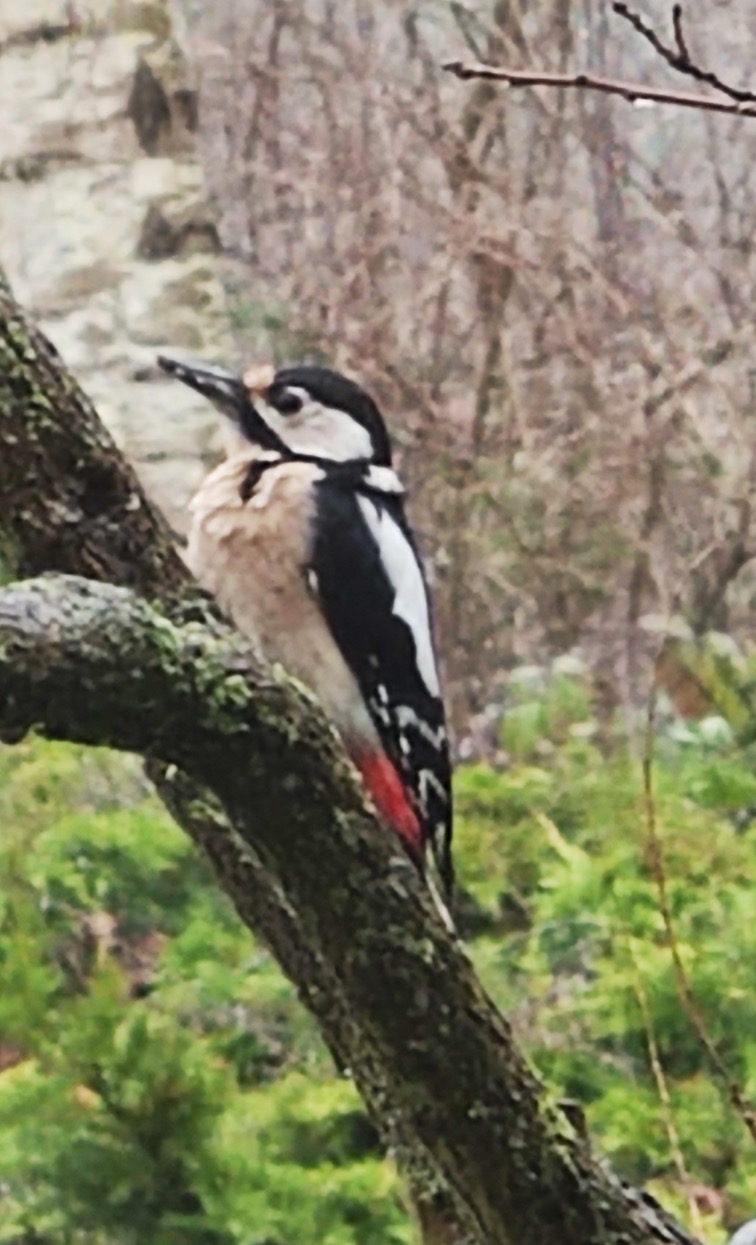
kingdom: Animalia
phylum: Chordata
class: Aves
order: Piciformes
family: Picidae
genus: Dendrocopos
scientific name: Dendrocopos major
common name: Stor flagspætte
